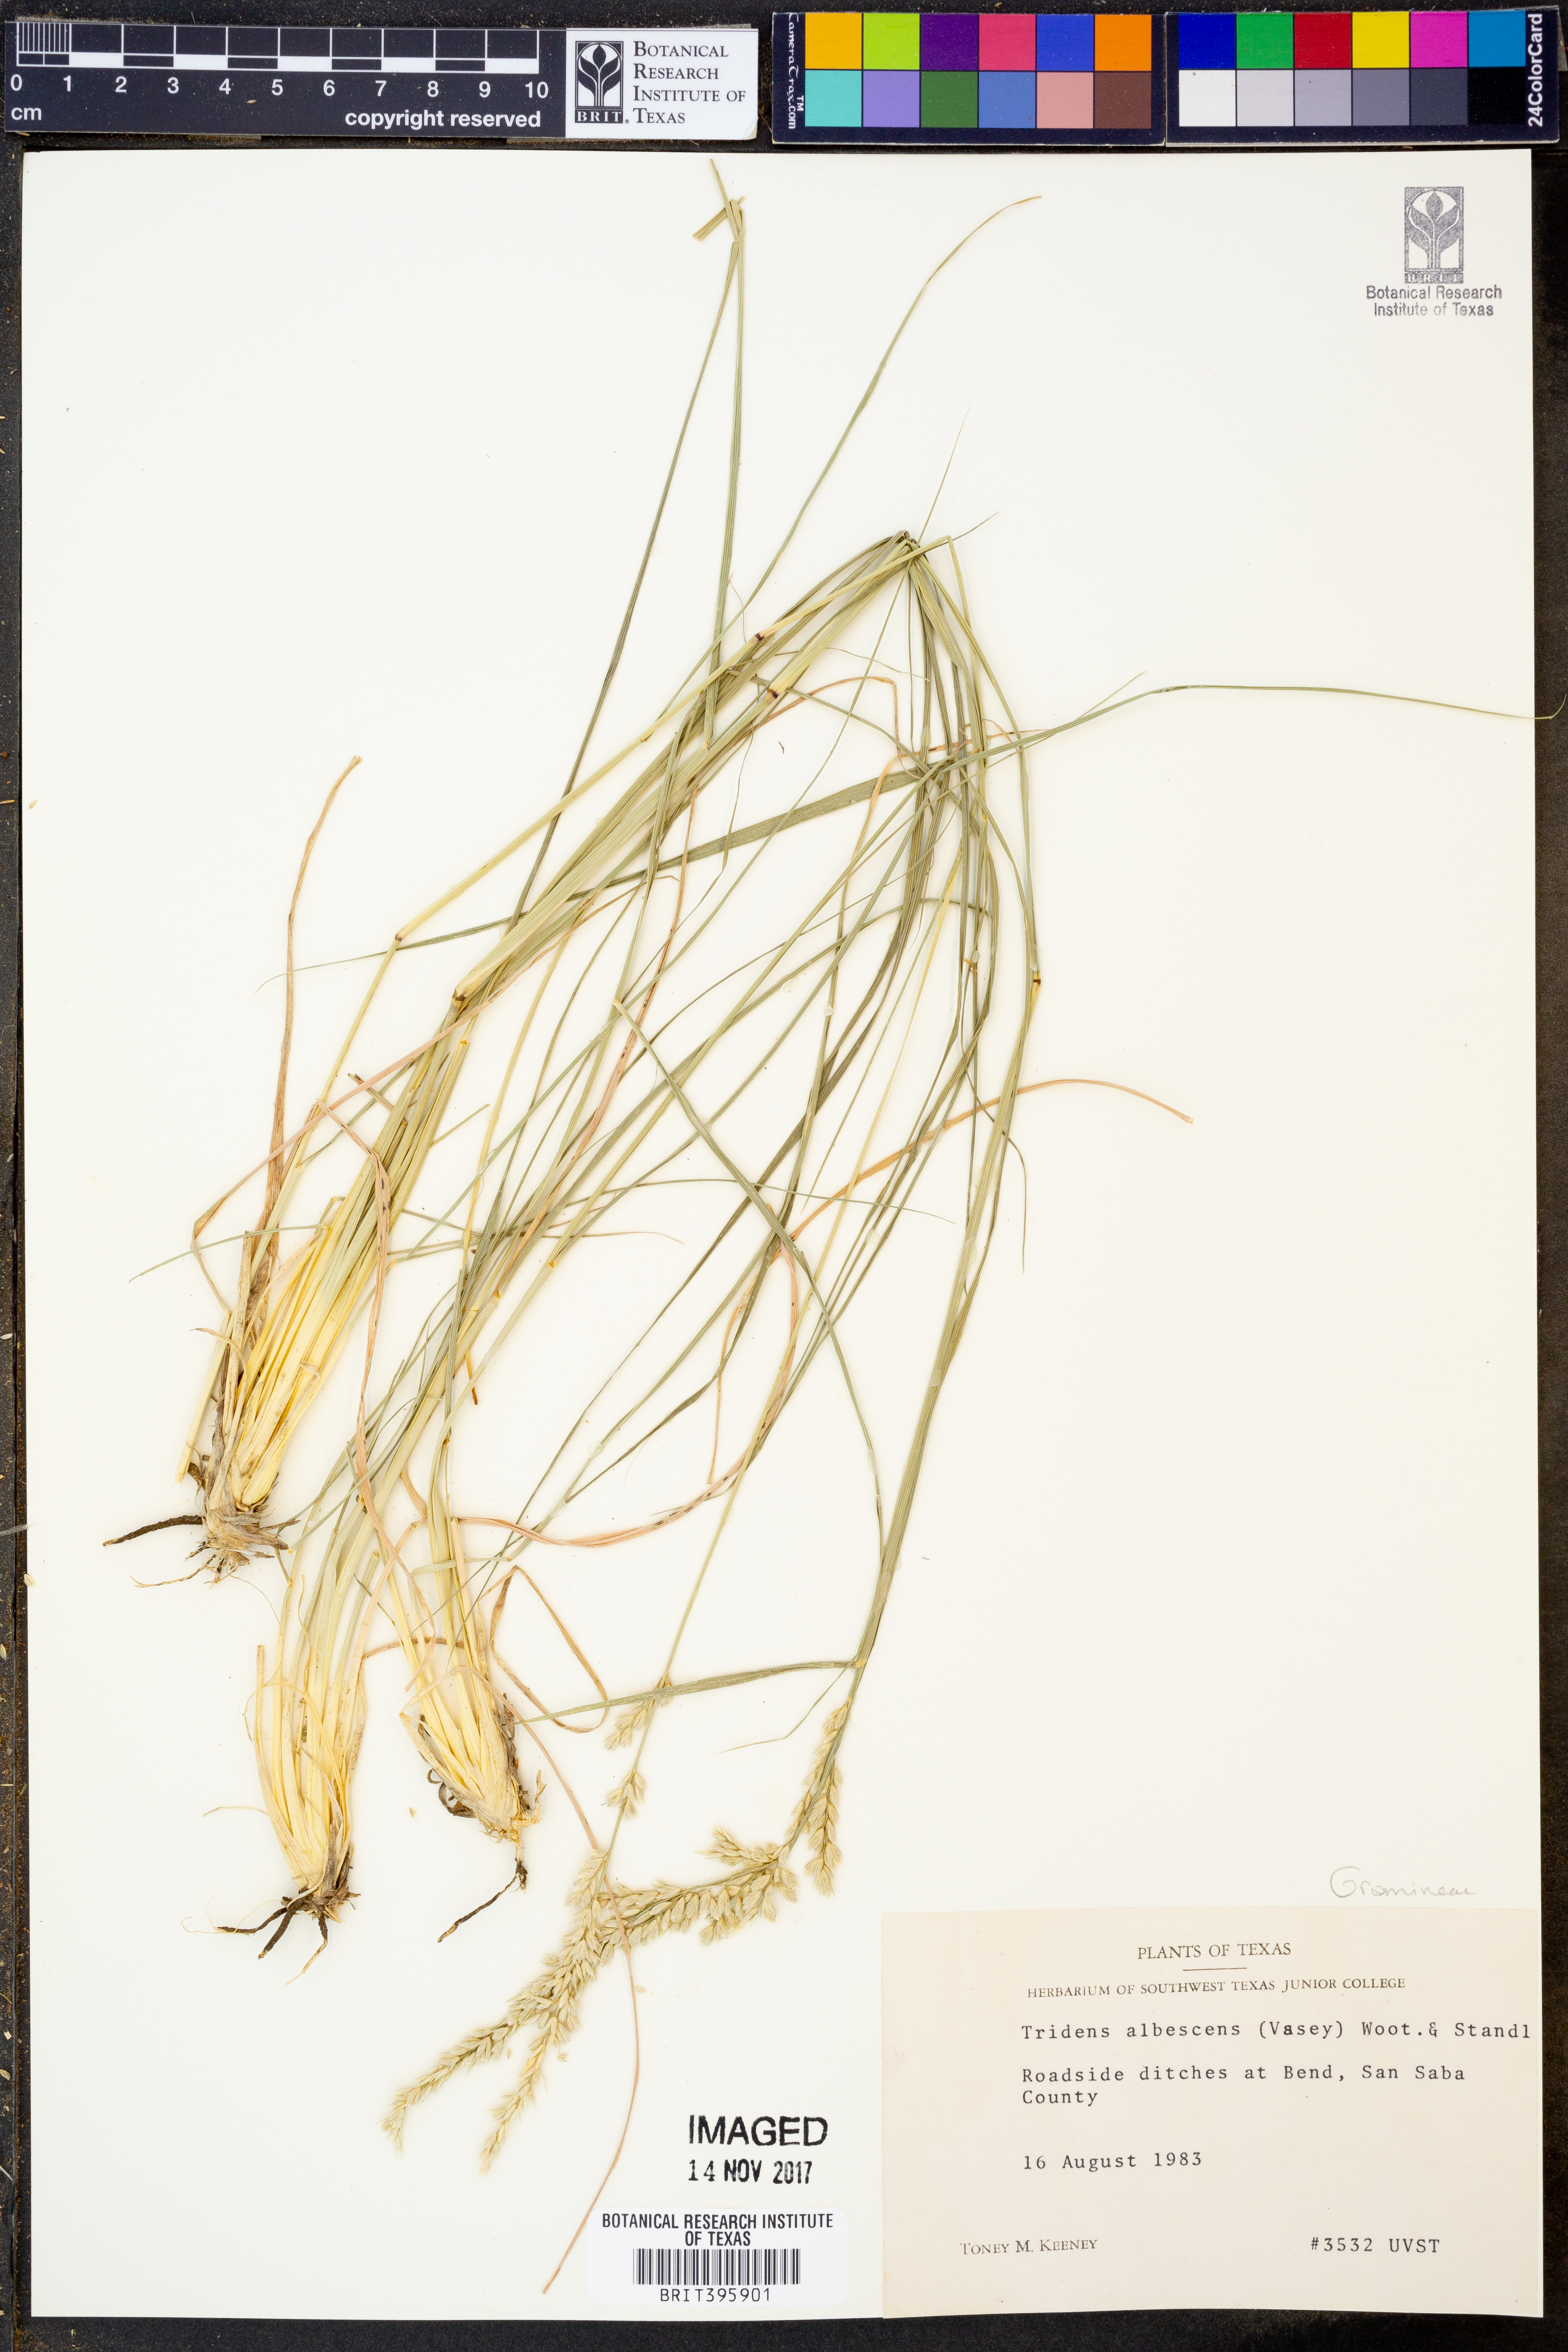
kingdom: Plantae
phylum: Tracheophyta
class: Liliopsida
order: Poales
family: Poaceae
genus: Tridens
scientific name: Tridens albescens
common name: White tridens
